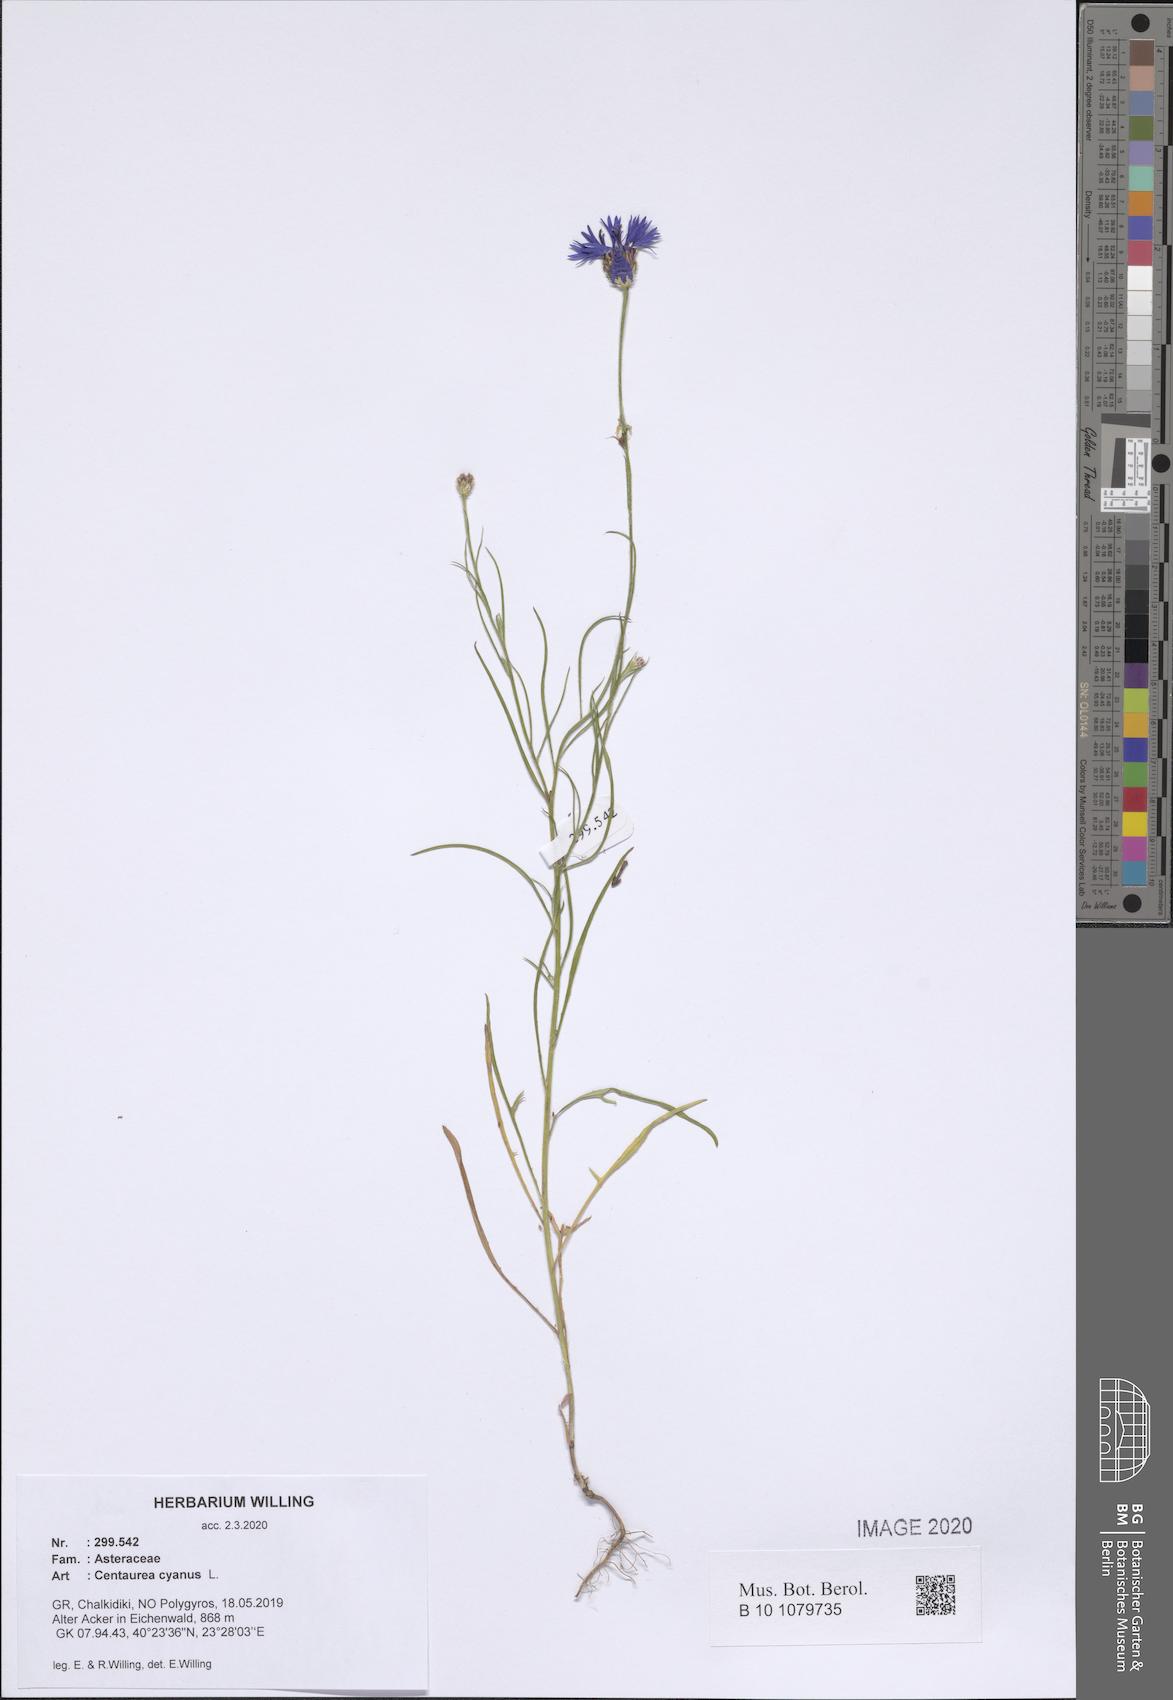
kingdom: Plantae
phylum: Tracheophyta
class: Magnoliopsida
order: Asterales
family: Asteraceae
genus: Centaurea
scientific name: Centaurea cyanus
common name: Cornflower
